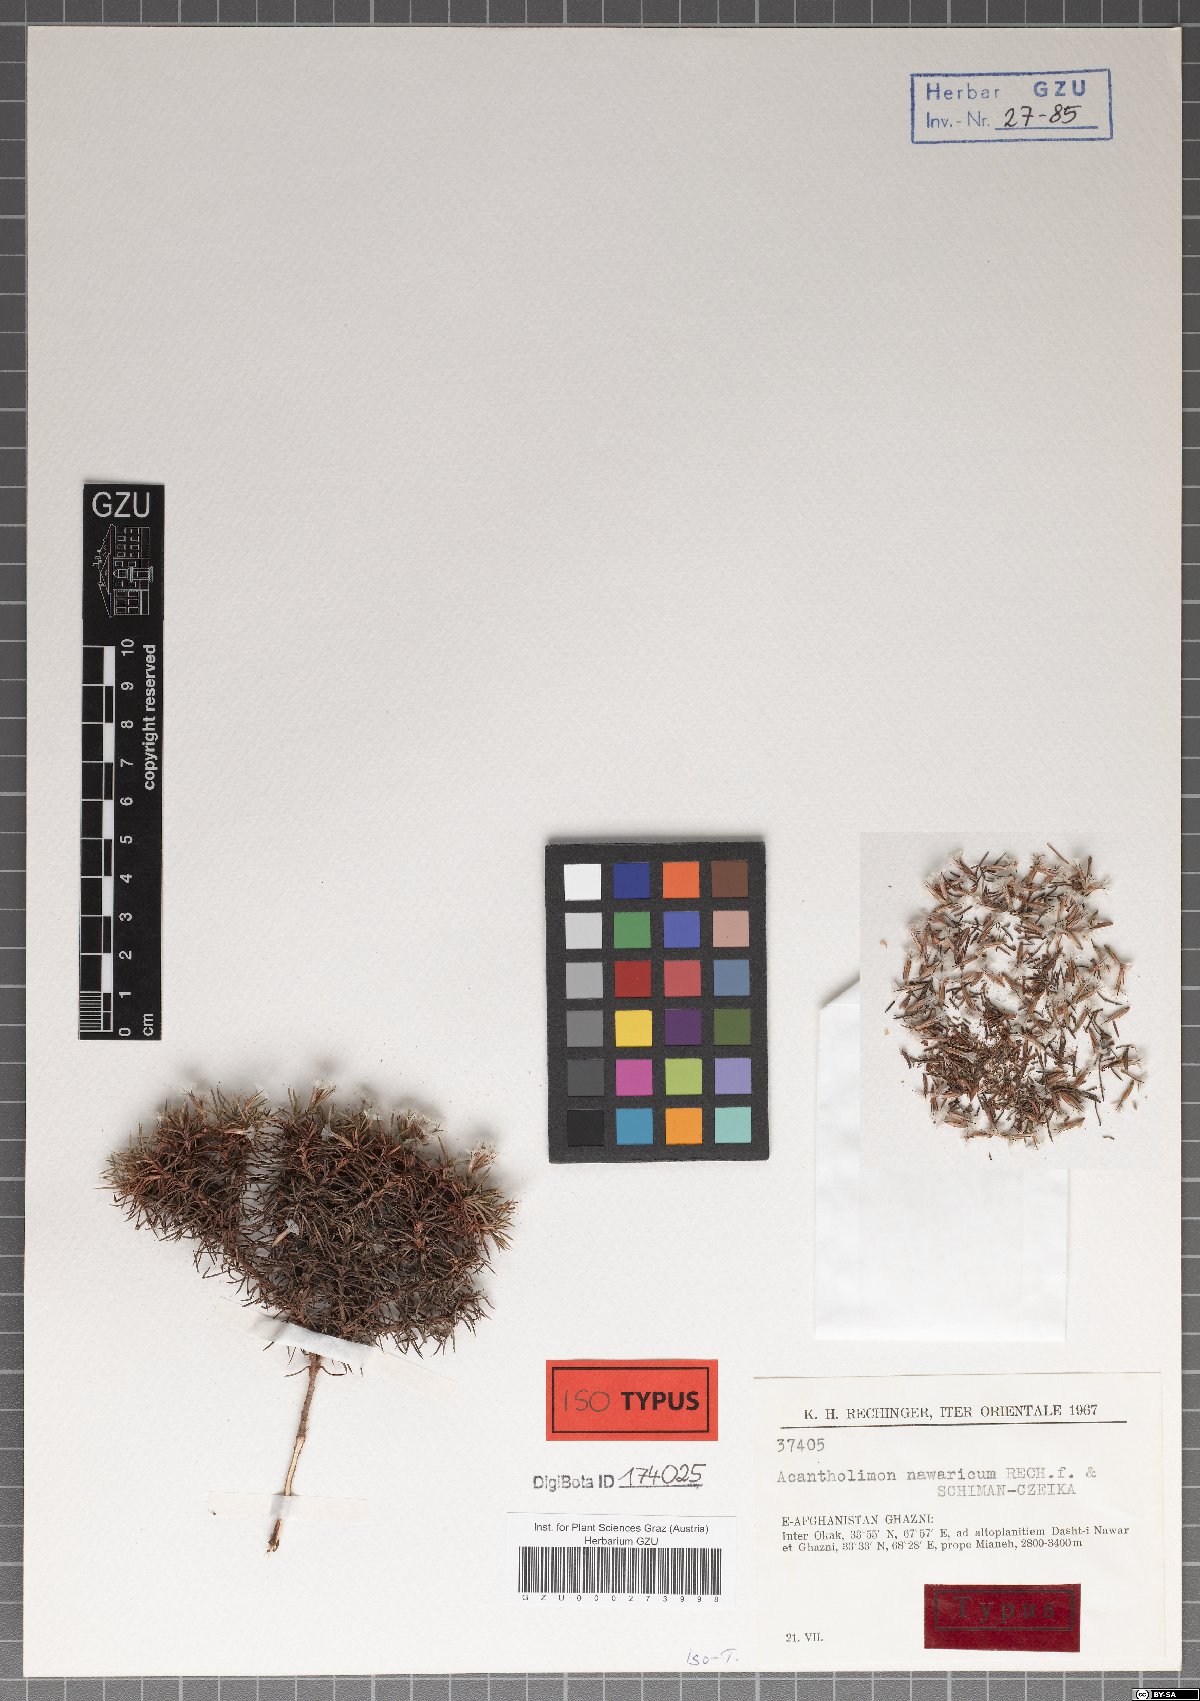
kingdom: Plantae
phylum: Tracheophyta
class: Magnoliopsida
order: Caryophyllales
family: Plumbaginaceae
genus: Acantholimon
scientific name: Acantholimon nawaricum
